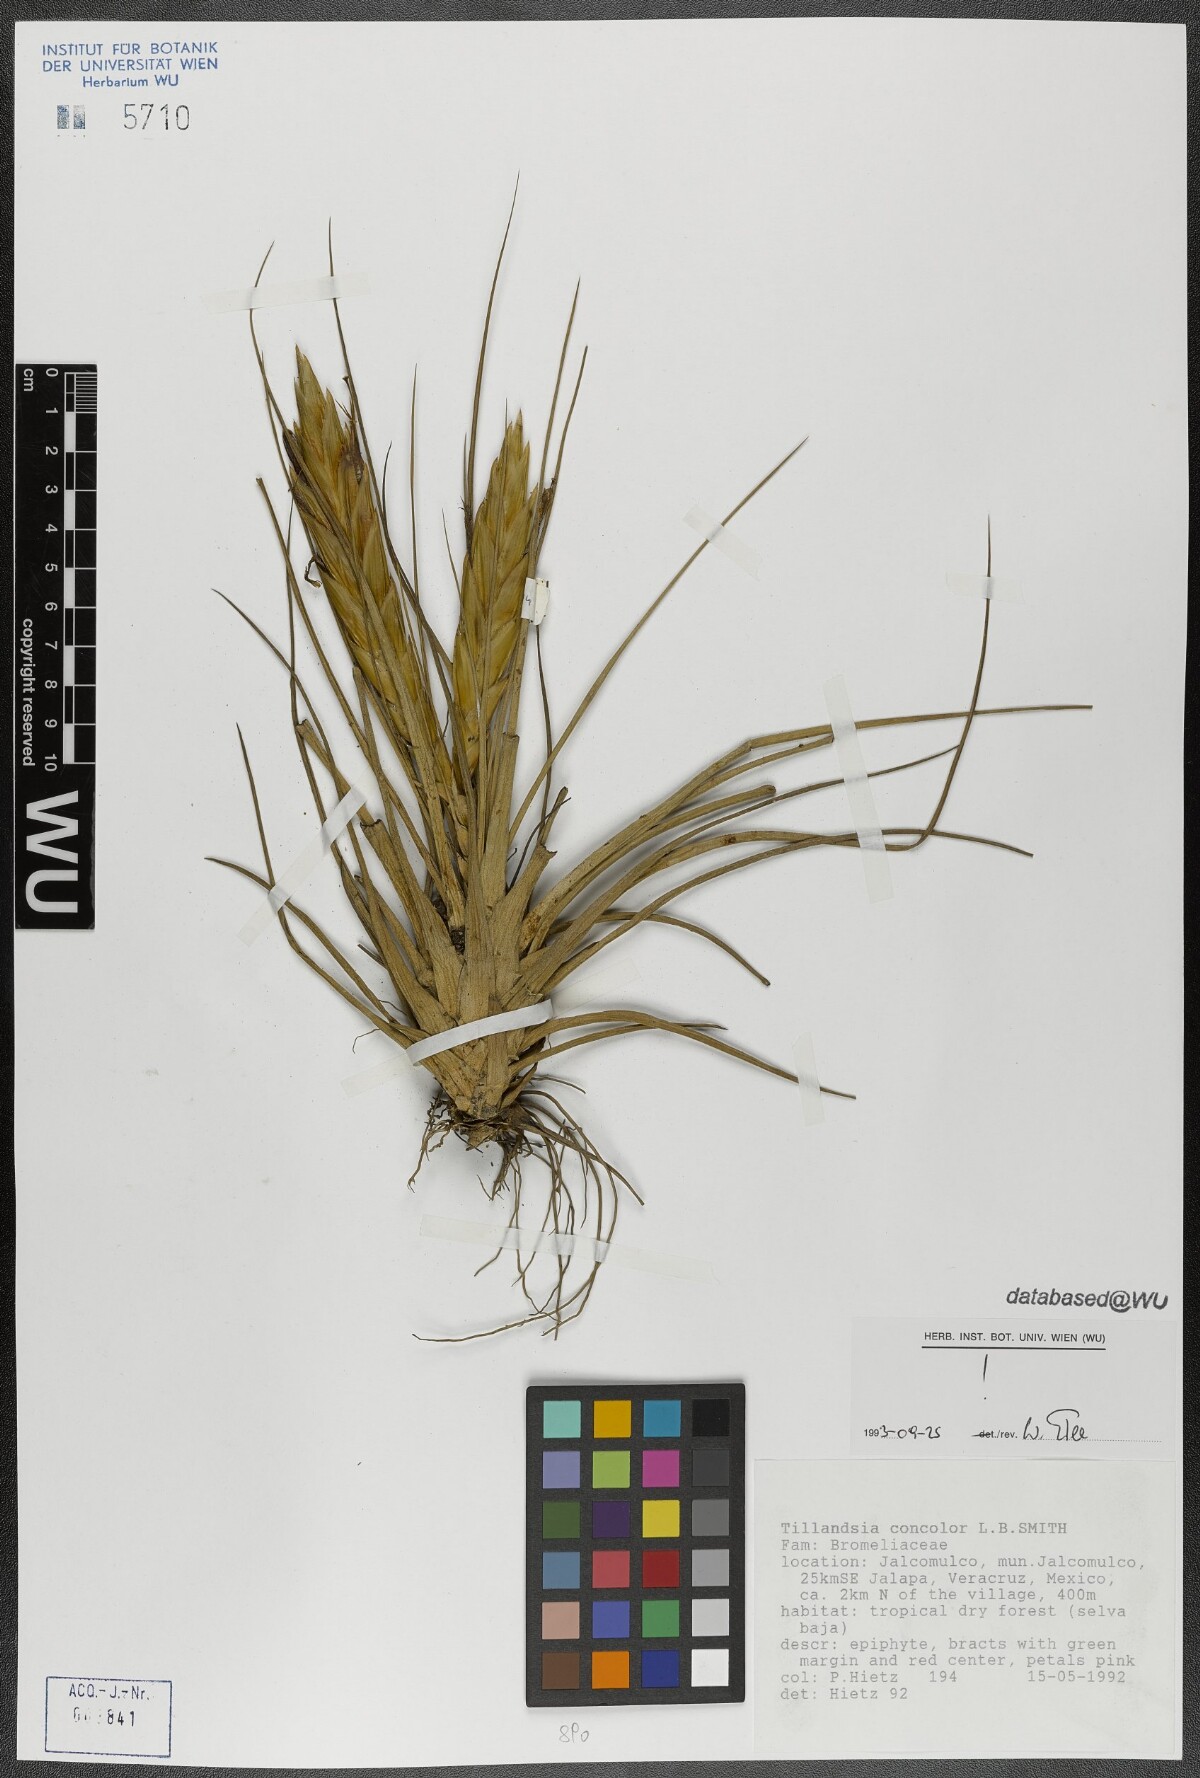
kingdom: Plantae
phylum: Tracheophyta
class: Liliopsida
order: Poales
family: Bromeliaceae
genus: Tillandsia
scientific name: Tillandsia concolor
